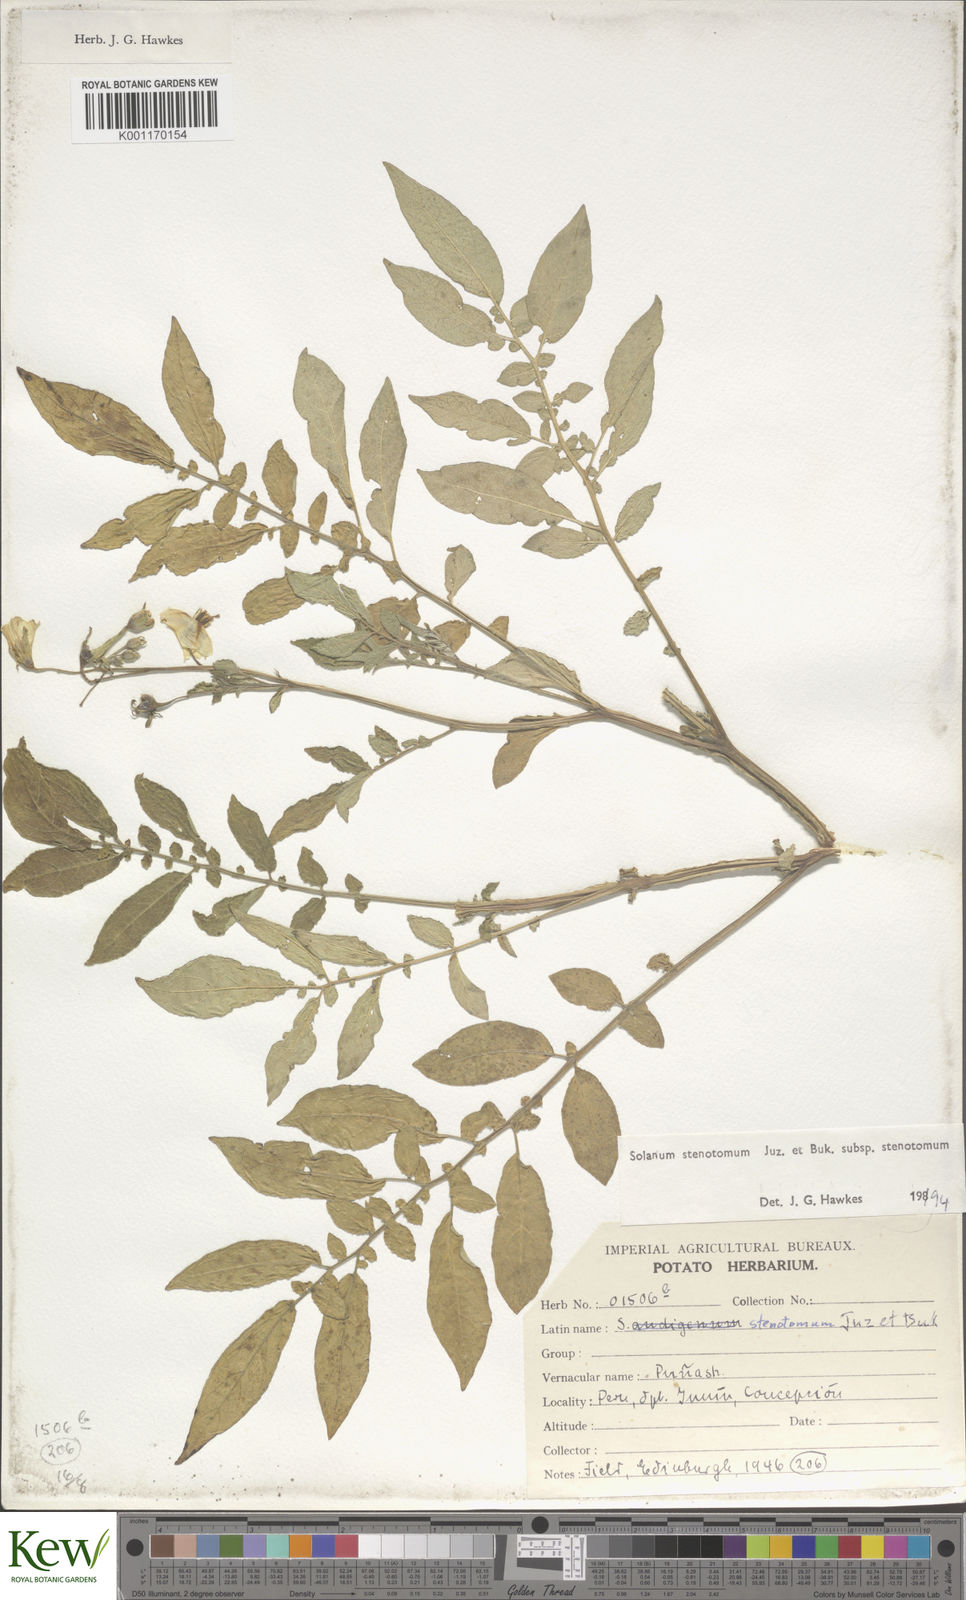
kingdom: Plantae
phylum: Tracheophyta
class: Magnoliopsida
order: Solanales
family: Solanaceae
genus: Solanum
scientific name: Solanum tuberosum
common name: Potato
